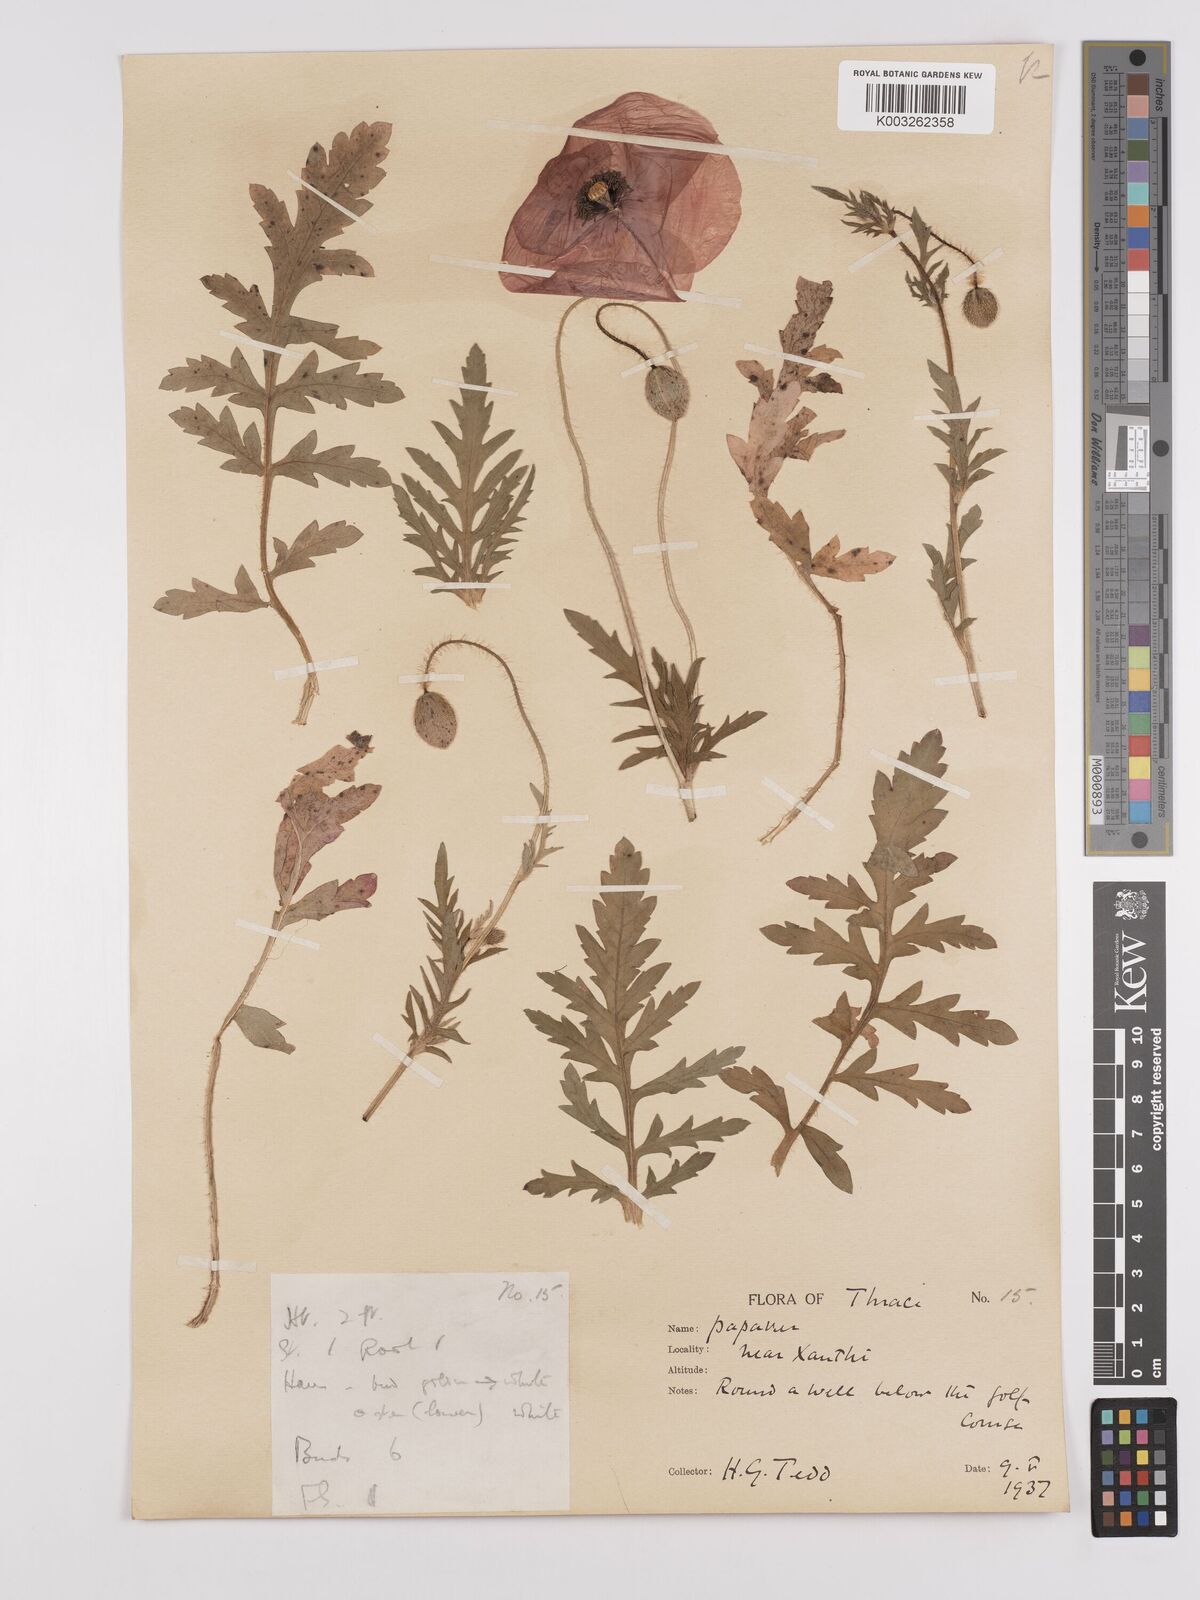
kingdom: Plantae
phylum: Tracheophyta
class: Magnoliopsida
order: Ranunculales
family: Papaveraceae
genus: Papaver
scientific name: Papaver rhoeas
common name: Corn poppy
